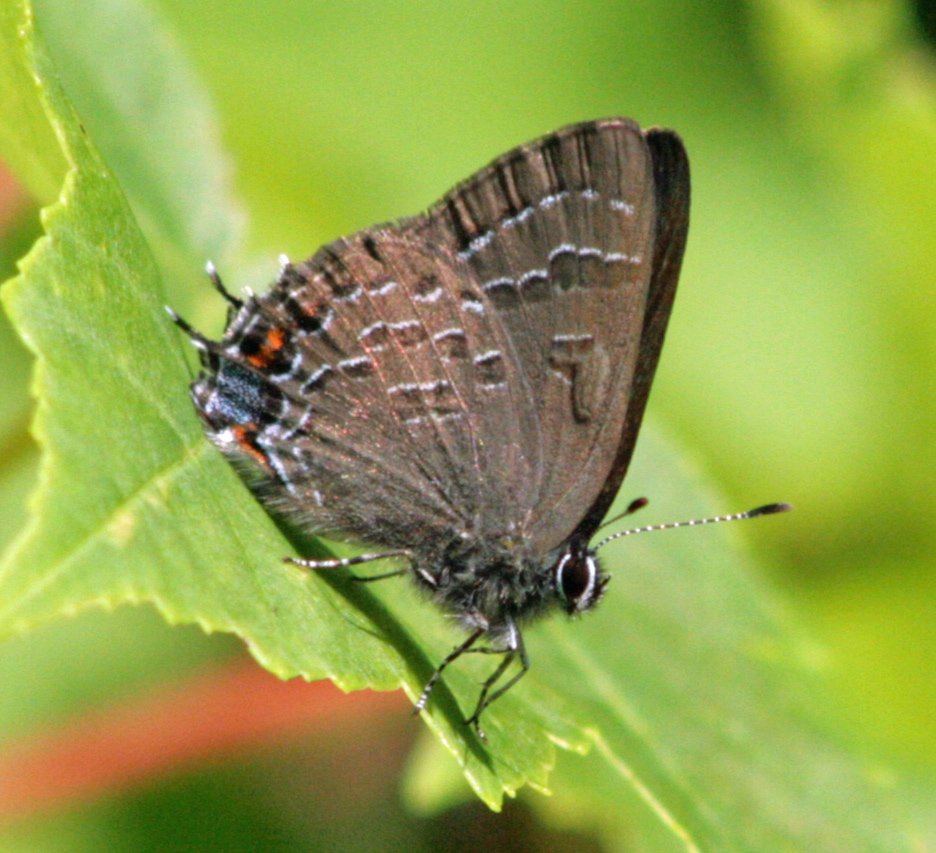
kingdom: Animalia
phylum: Arthropoda
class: Insecta
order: Lepidoptera
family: Lycaenidae
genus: Satyrium
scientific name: Satyrium calanus
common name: Banded Hairstreak
